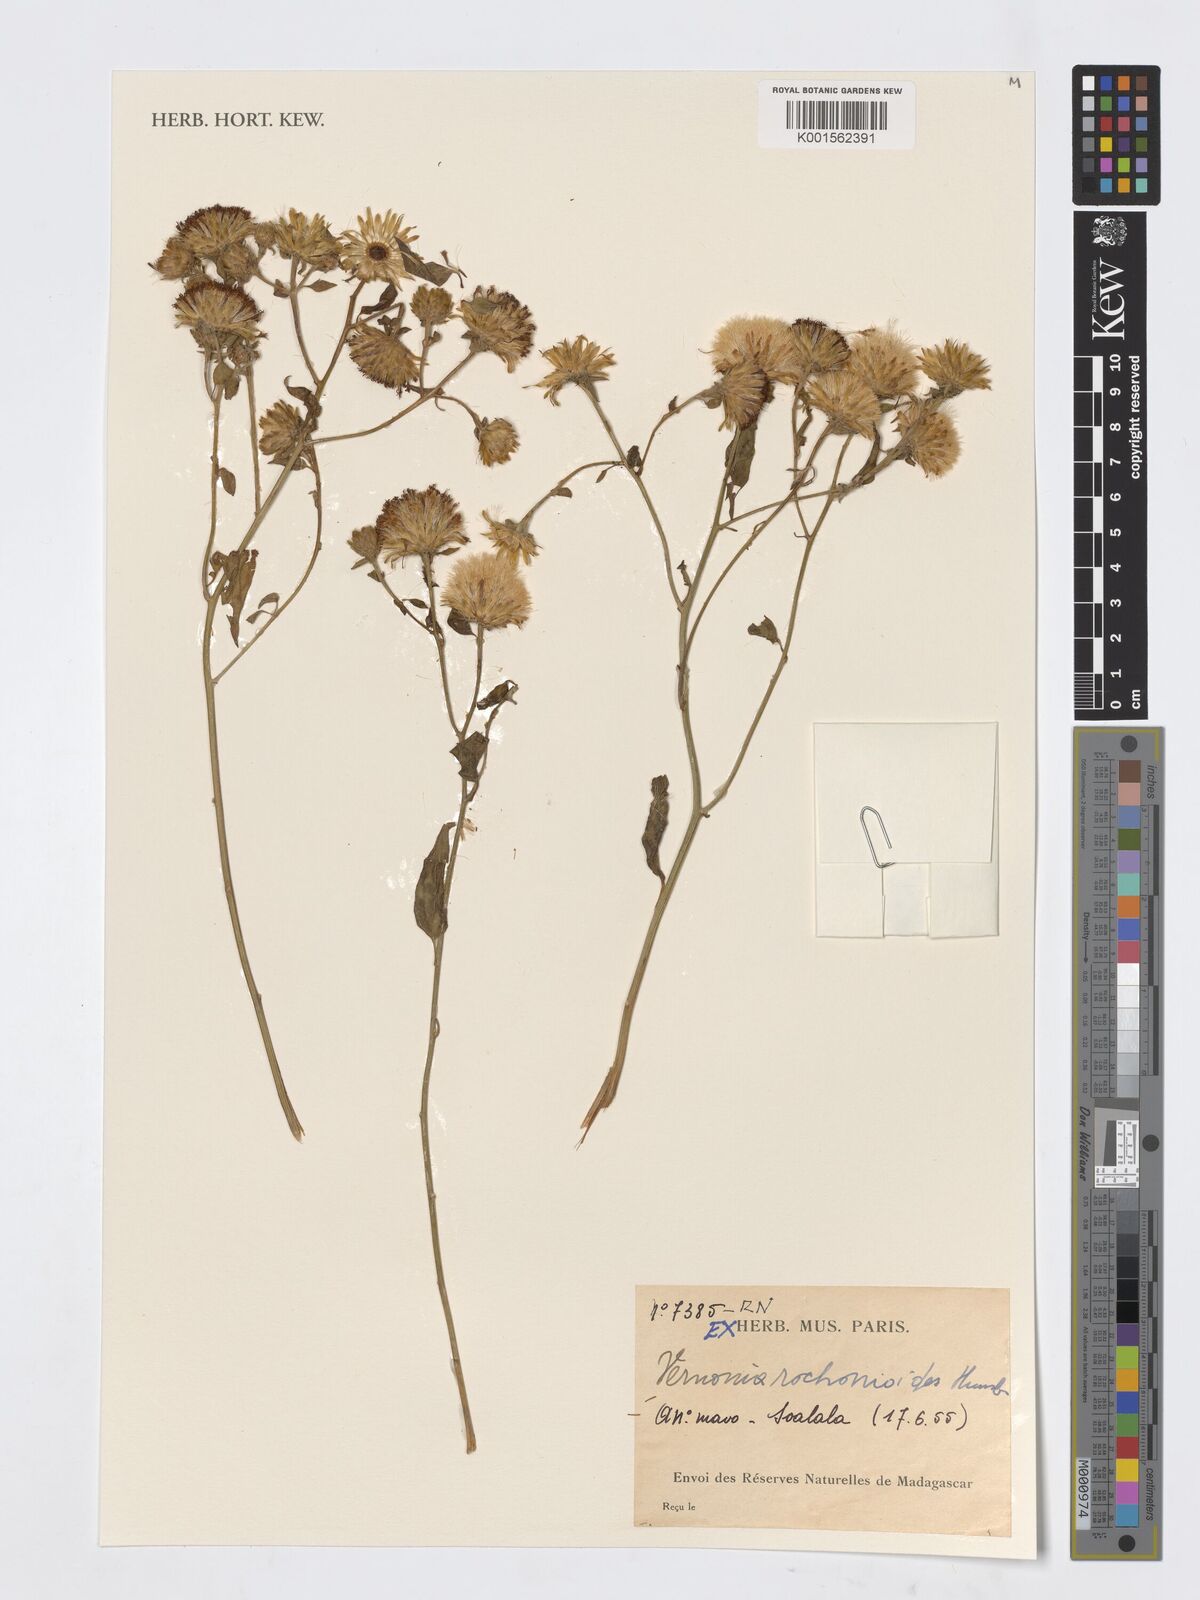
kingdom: Plantae
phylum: Tracheophyta
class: Magnoliopsida
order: Asterales
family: Asteraceae
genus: Distephanus
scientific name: Distephanus rochonioides
